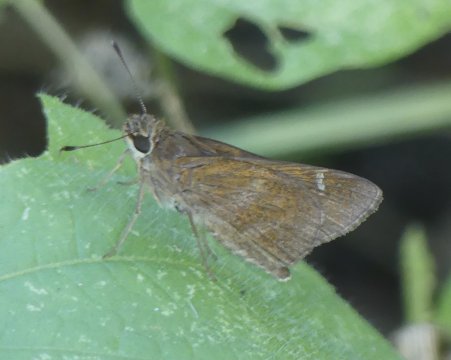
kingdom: Animalia
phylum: Arthropoda
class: Insecta
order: Lepidoptera
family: Hesperiidae
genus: Lerema
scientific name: Lerema accius
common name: Clouded Skipper
